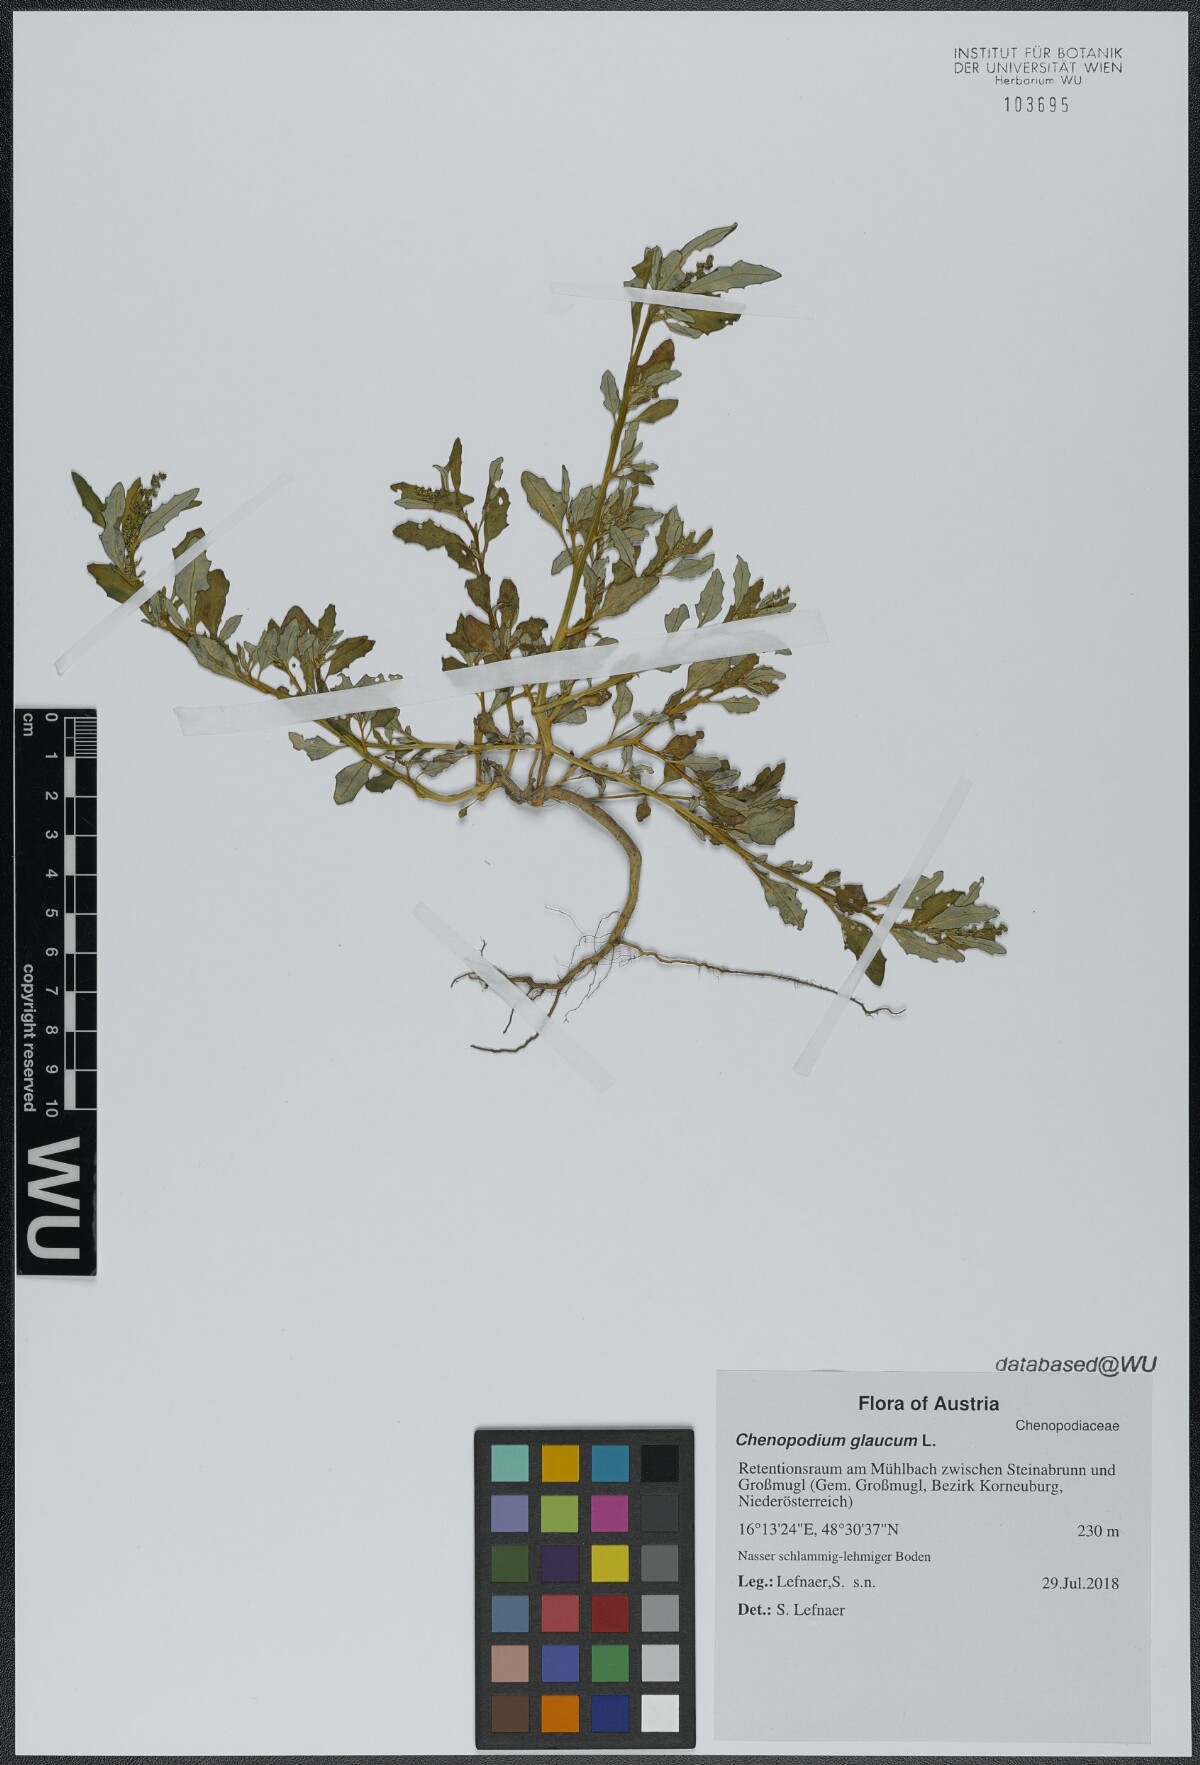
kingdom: Plantae
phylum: Tracheophyta
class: Magnoliopsida
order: Caryophyllales
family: Amaranthaceae
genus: Oxybasis
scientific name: Oxybasis glauca
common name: Glaucous goosefoot
